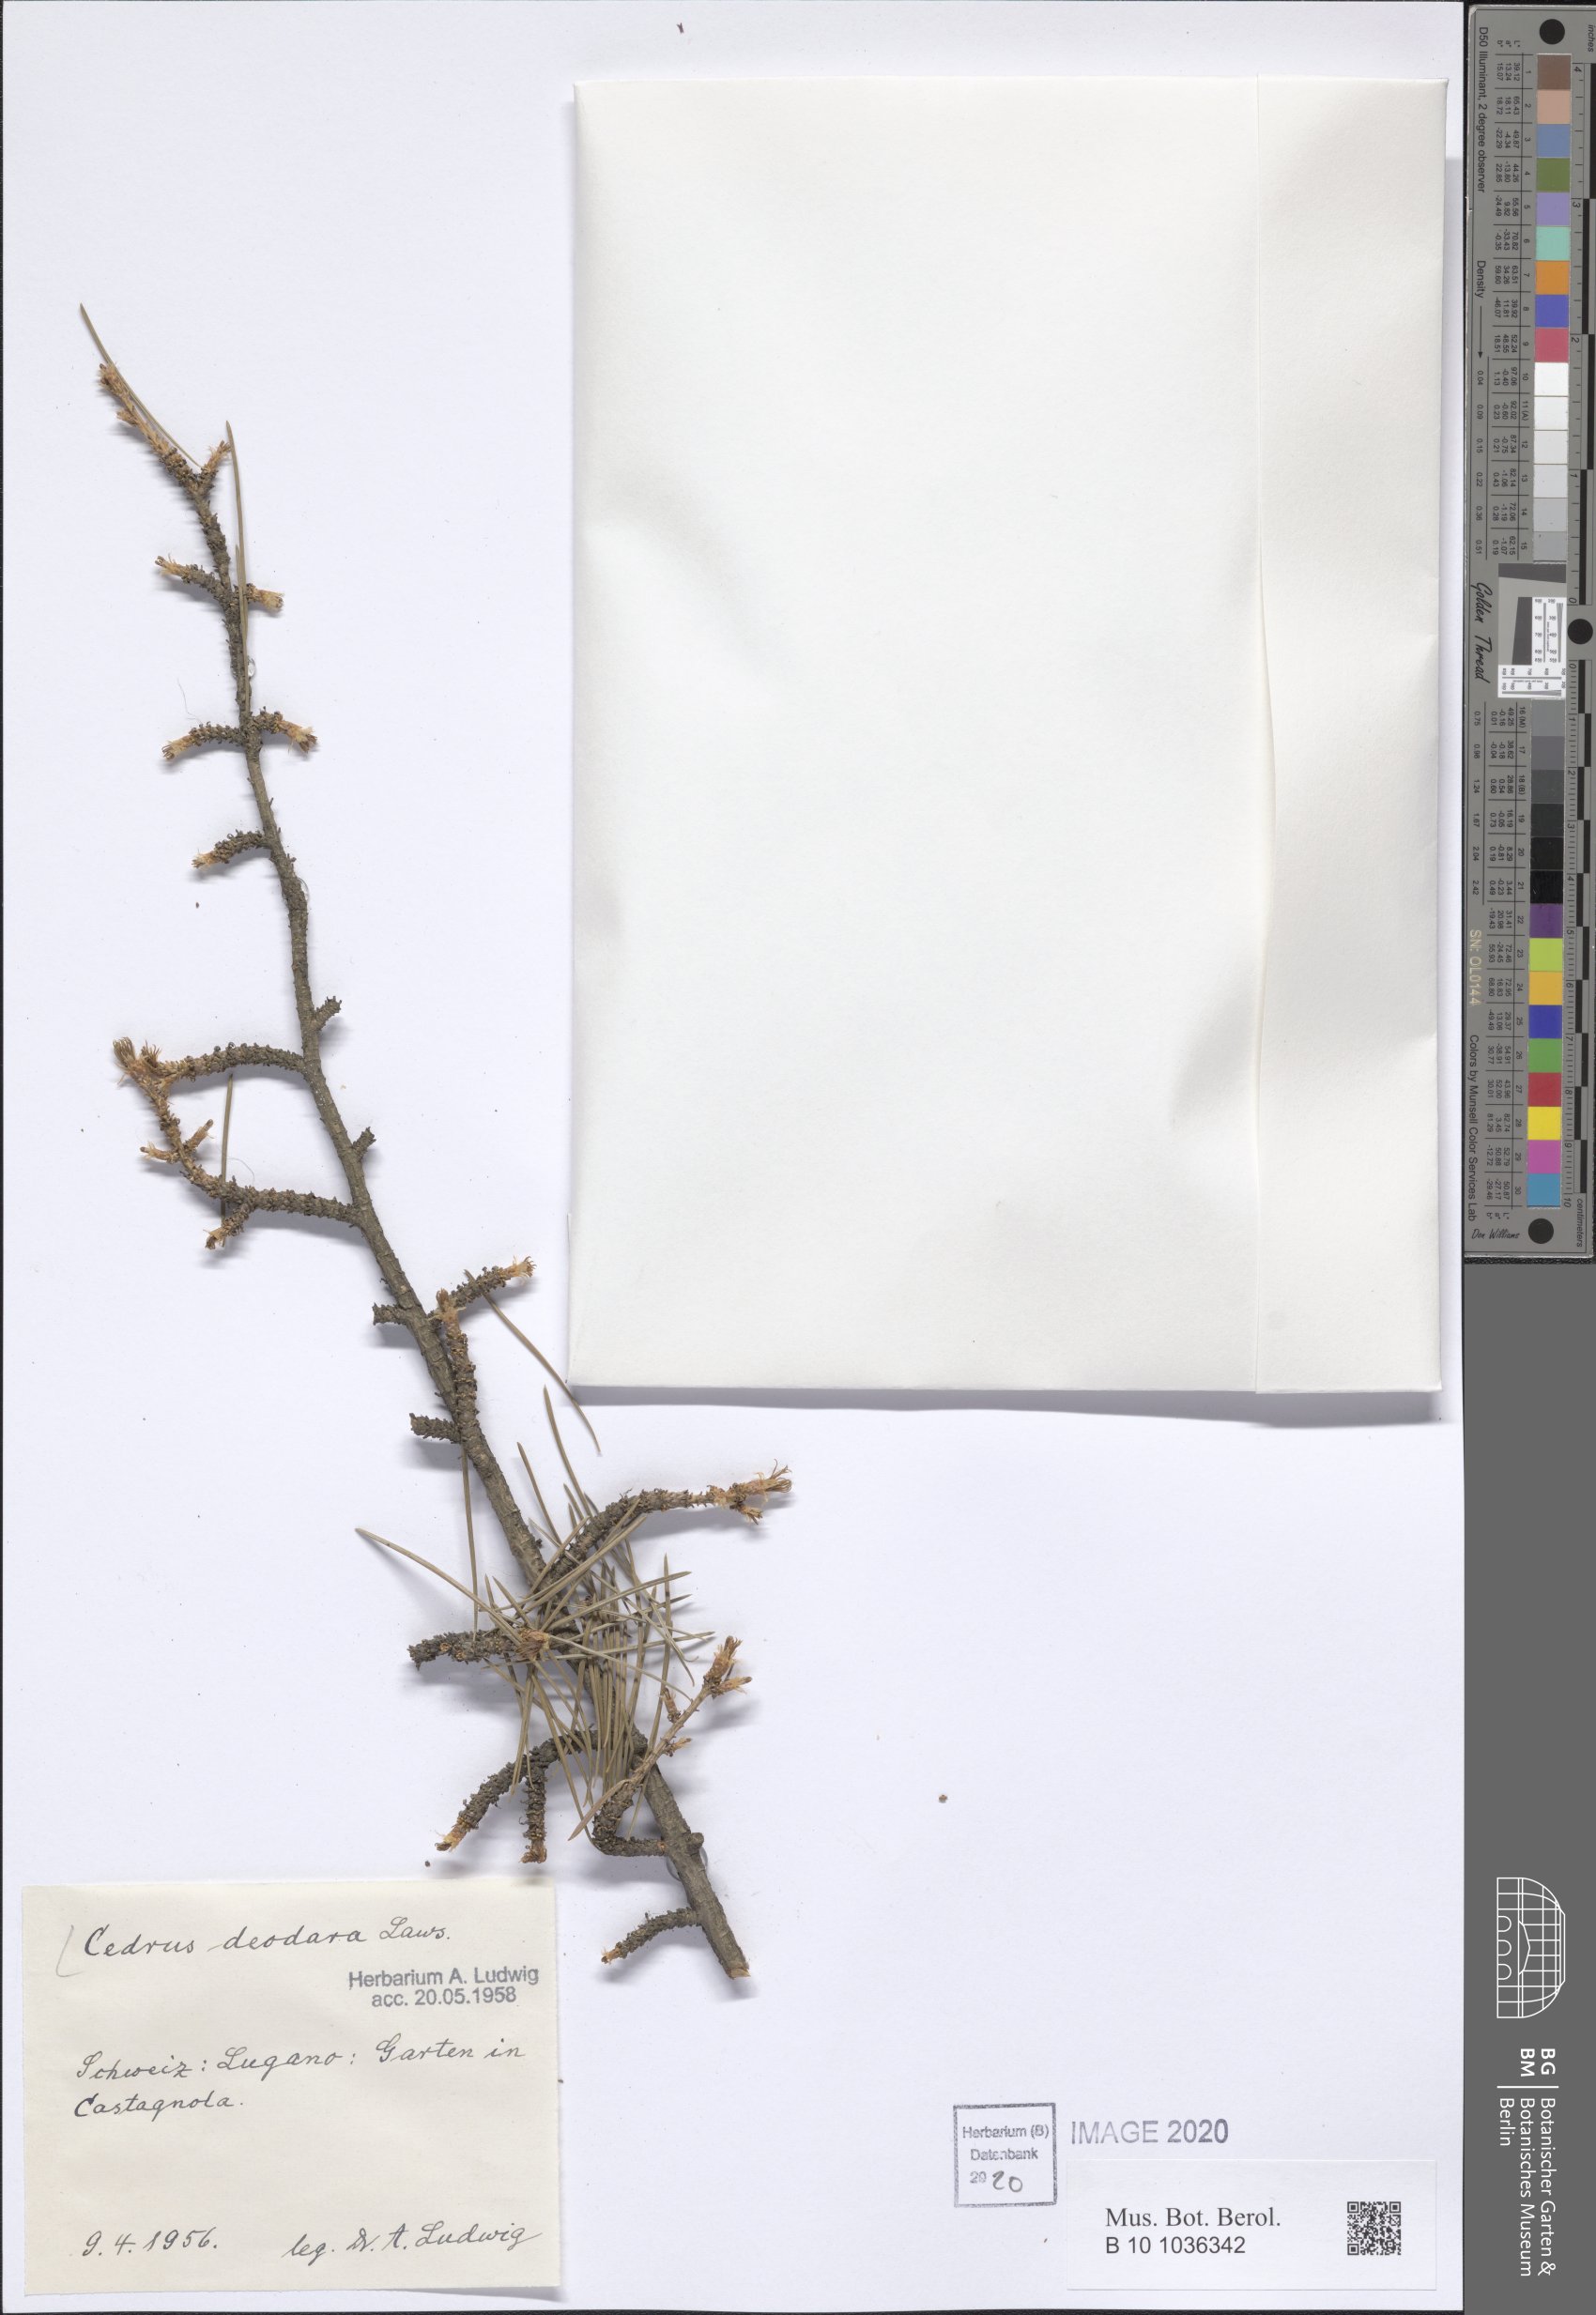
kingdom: Plantae
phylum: Tracheophyta
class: Pinopsida
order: Pinales
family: Pinaceae
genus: Cedrus
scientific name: Cedrus deodara
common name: Deodar
